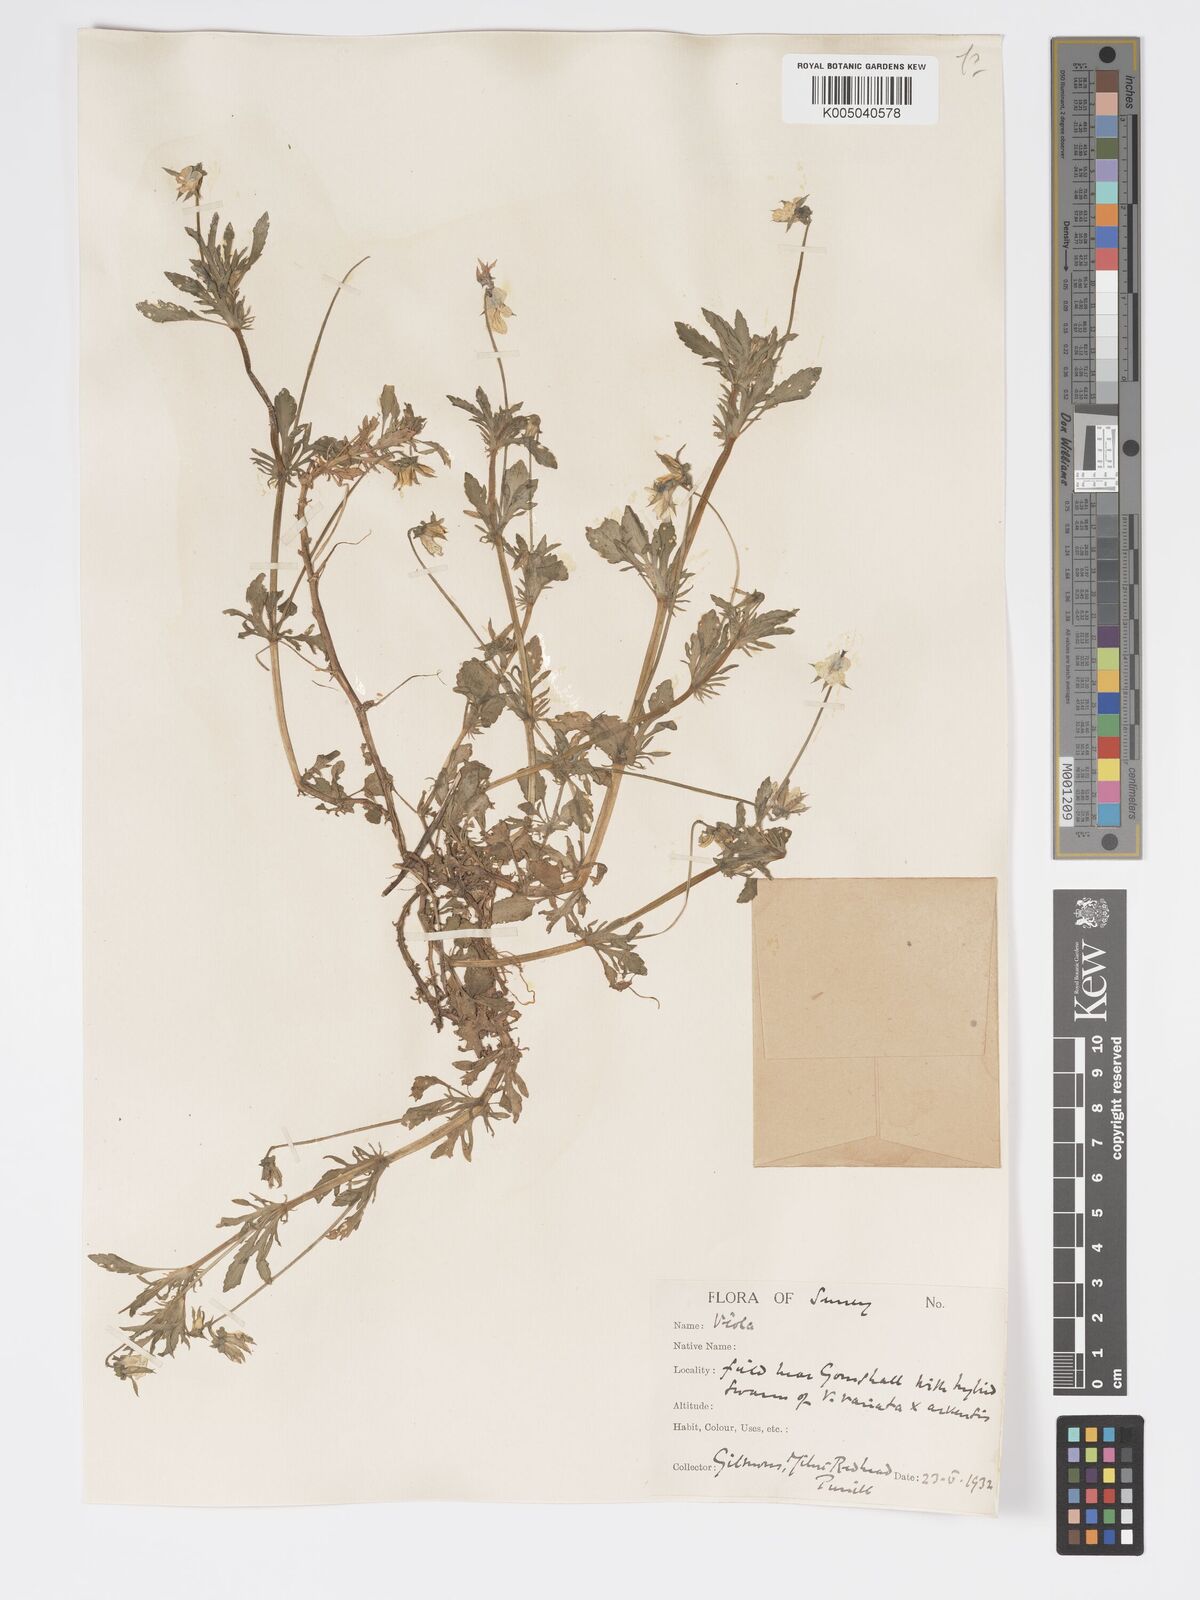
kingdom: Plantae
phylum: Tracheophyta
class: Magnoliopsida
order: Malpighiales
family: Violaceae
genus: Viola
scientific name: Viola
